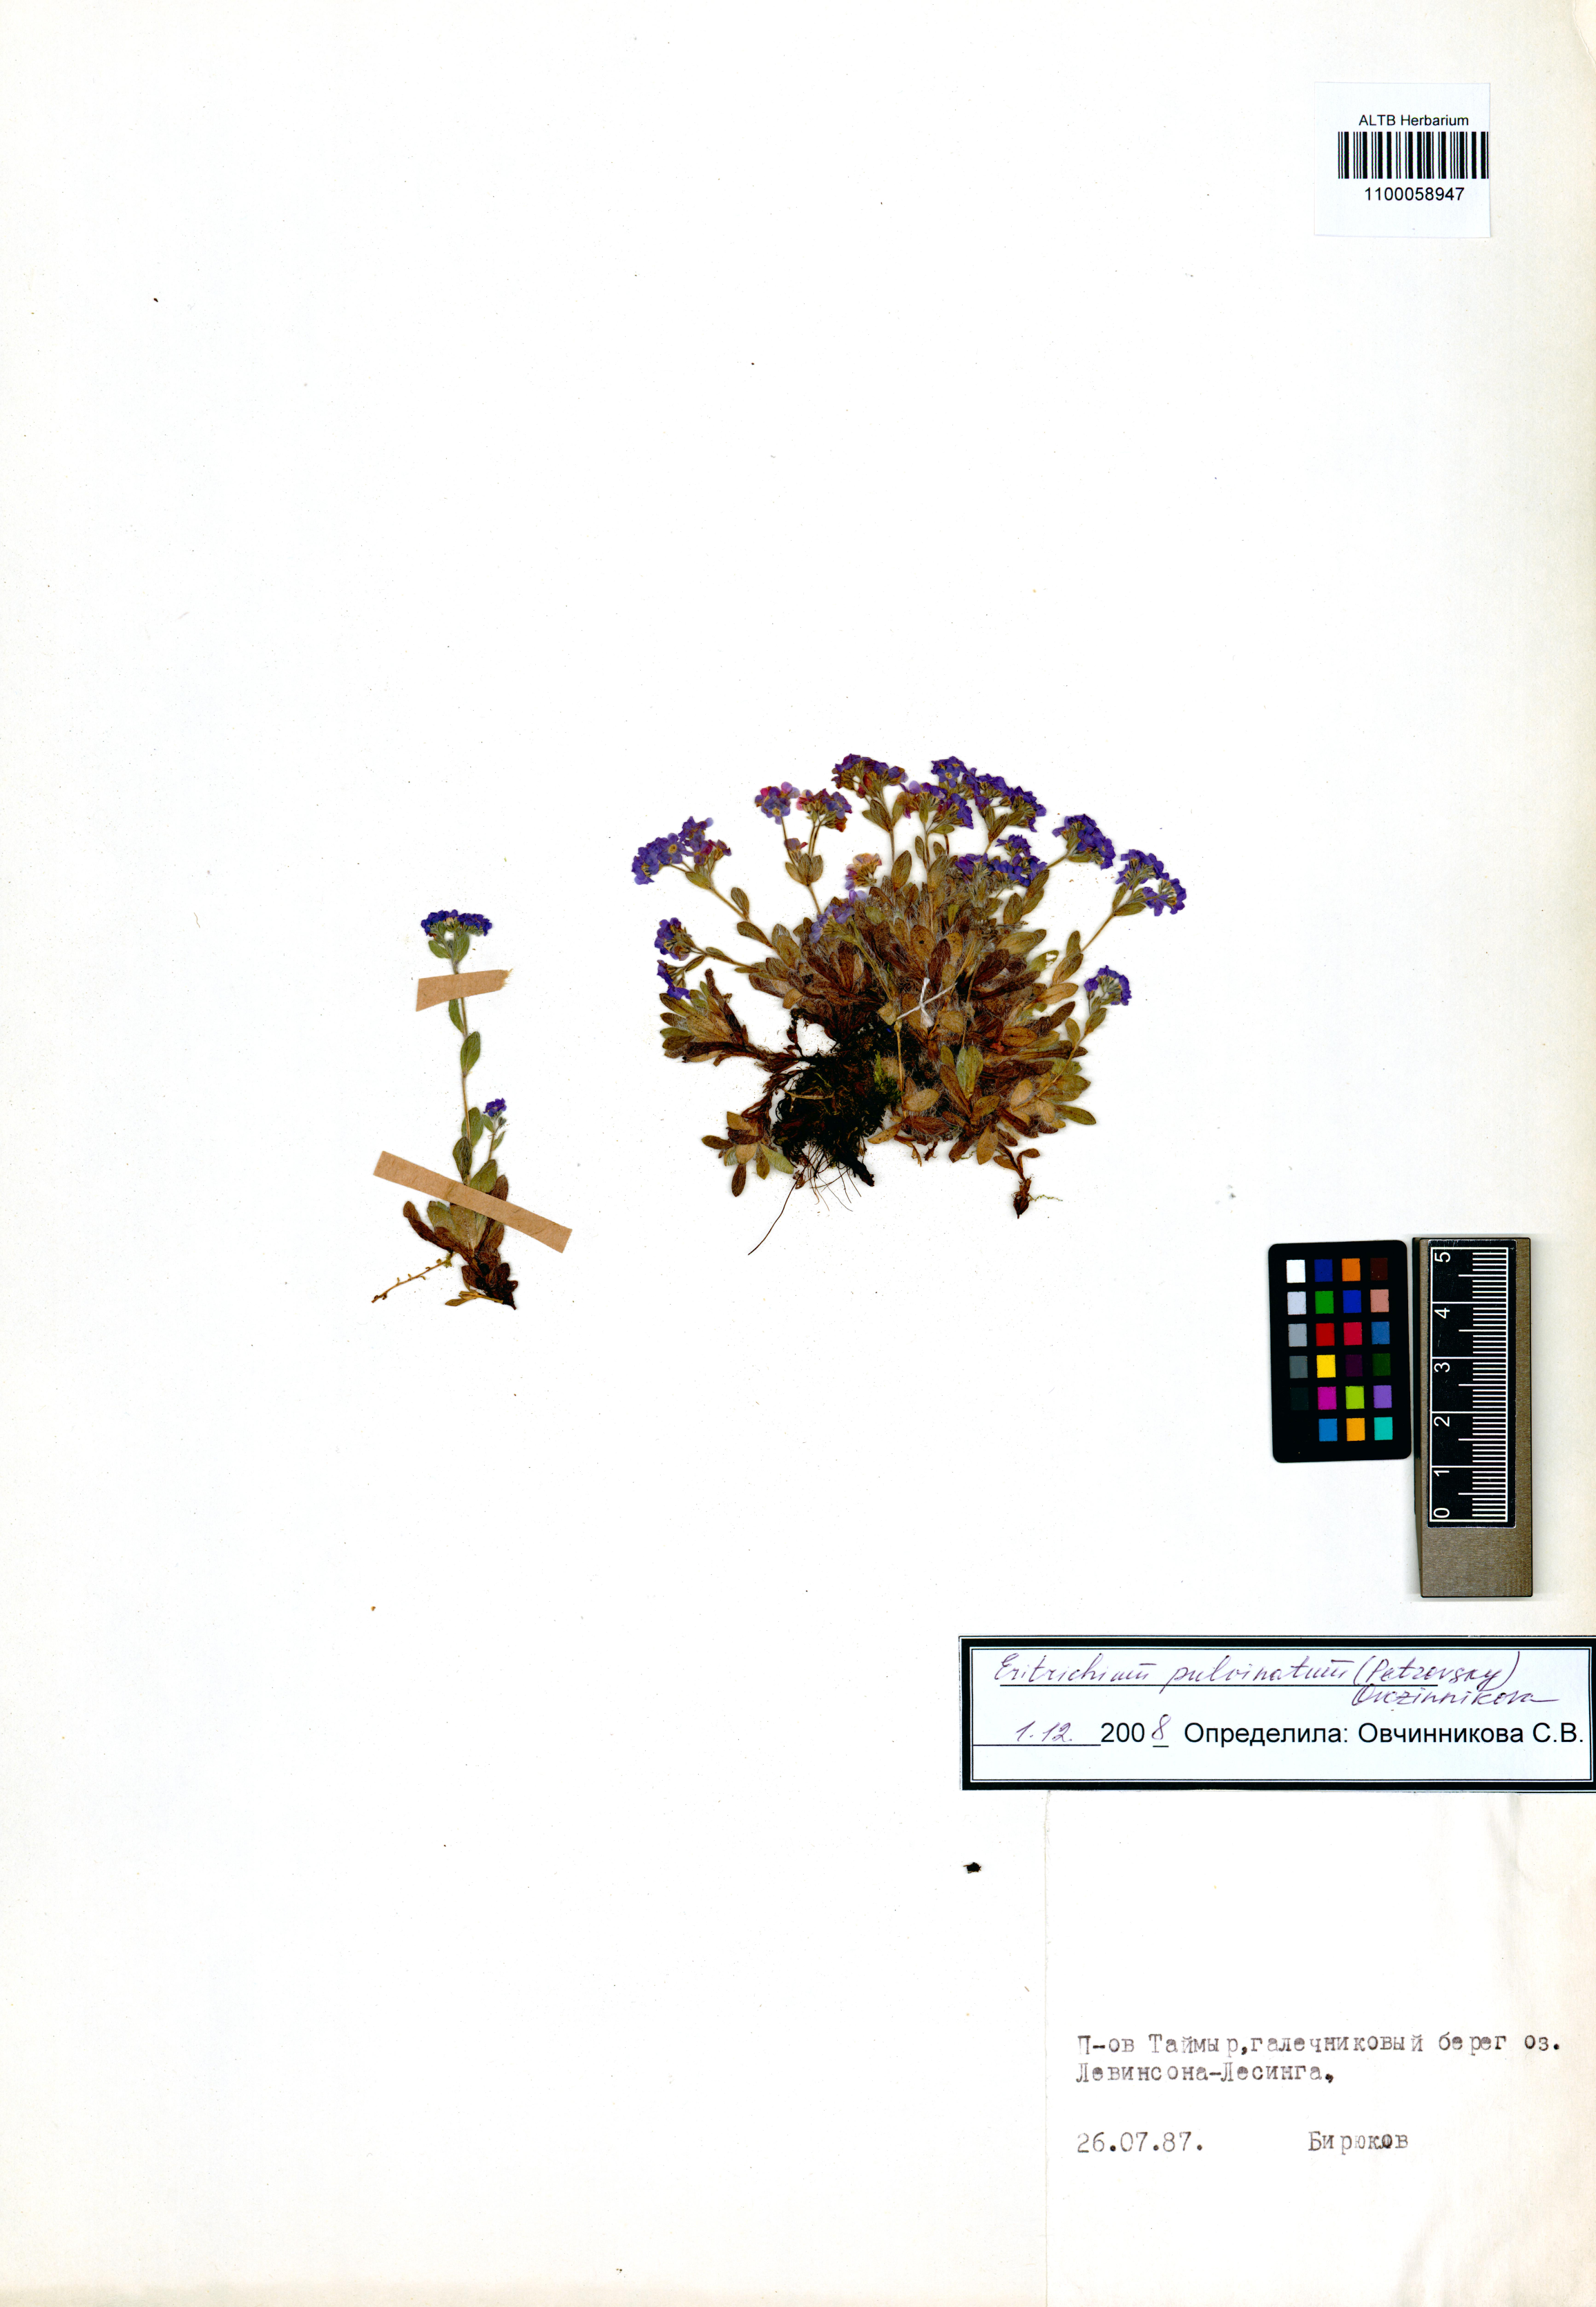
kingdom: Plantae
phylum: Tracheophyta
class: Magnoliopsida
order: Boraginales
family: Boraginaceae
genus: Eritrichium
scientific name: Eritrichium pulvinatum
